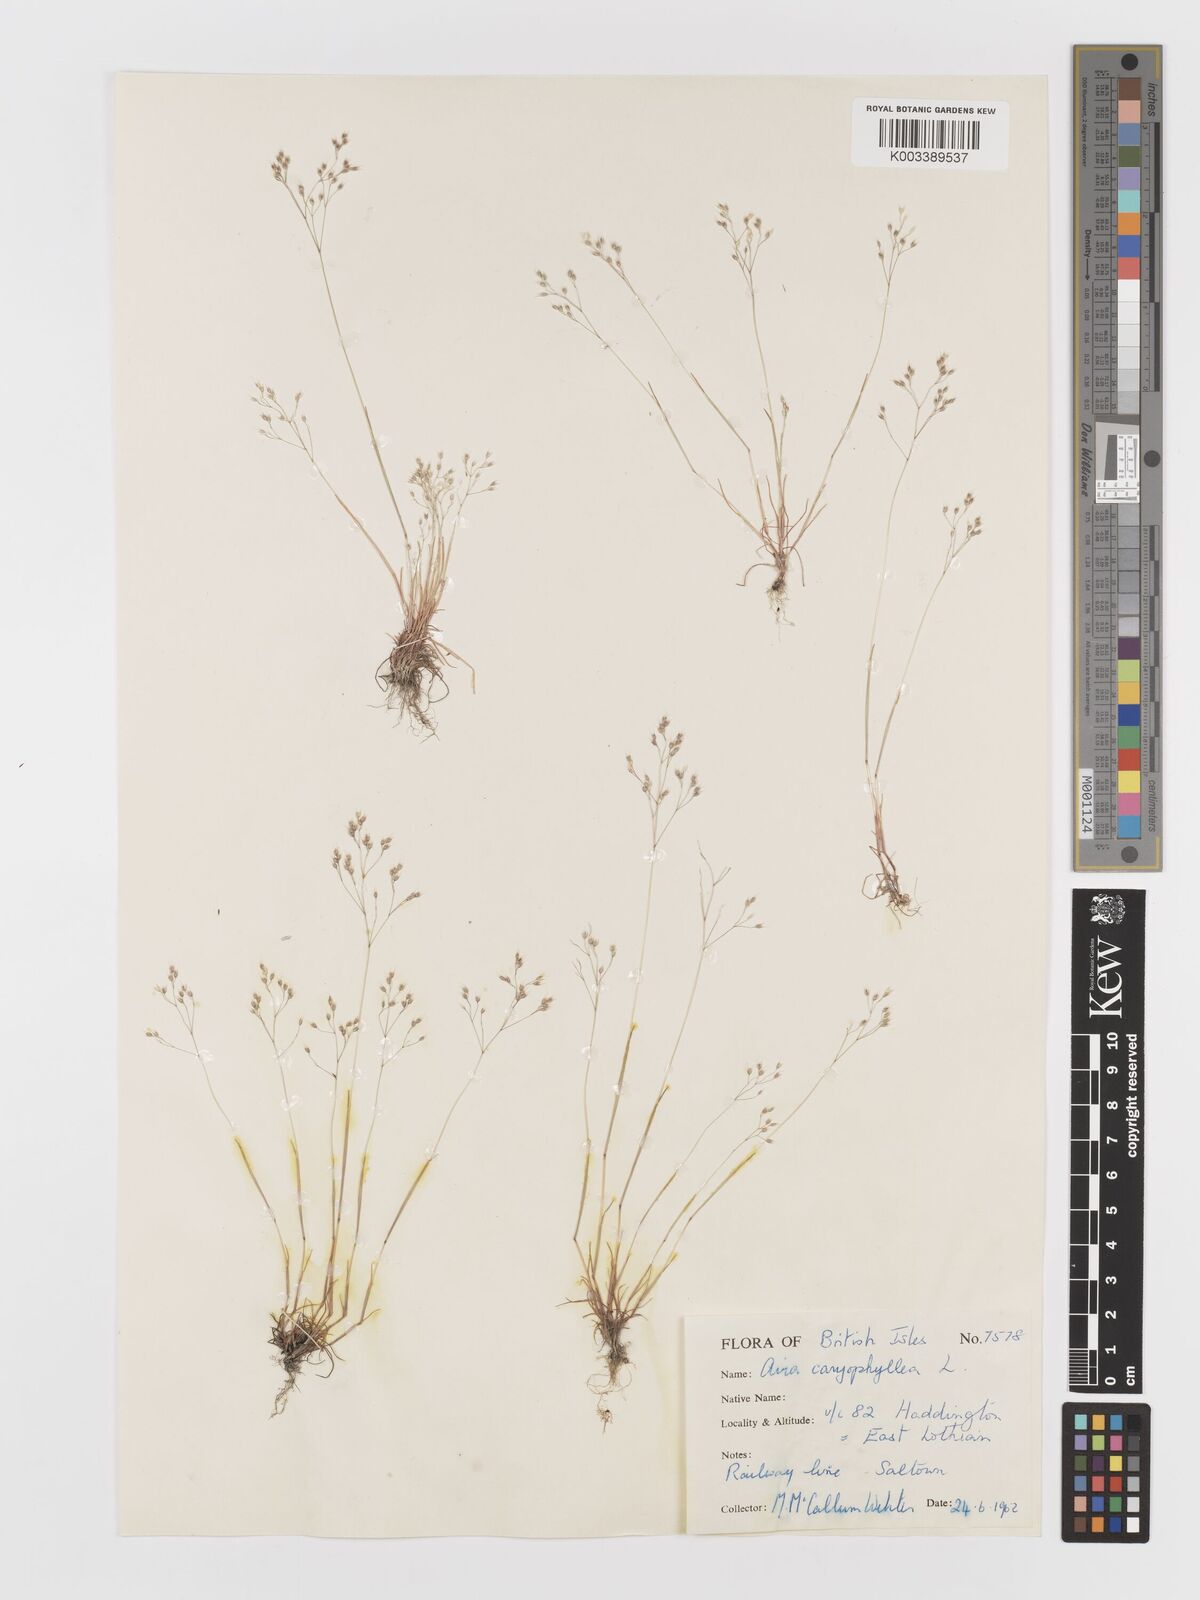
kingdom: Plantae
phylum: Tracheophyta
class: Liliopsida
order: Poales
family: Poaceae
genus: Aira
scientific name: Aira caryophyllea
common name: Silver hairgrass
